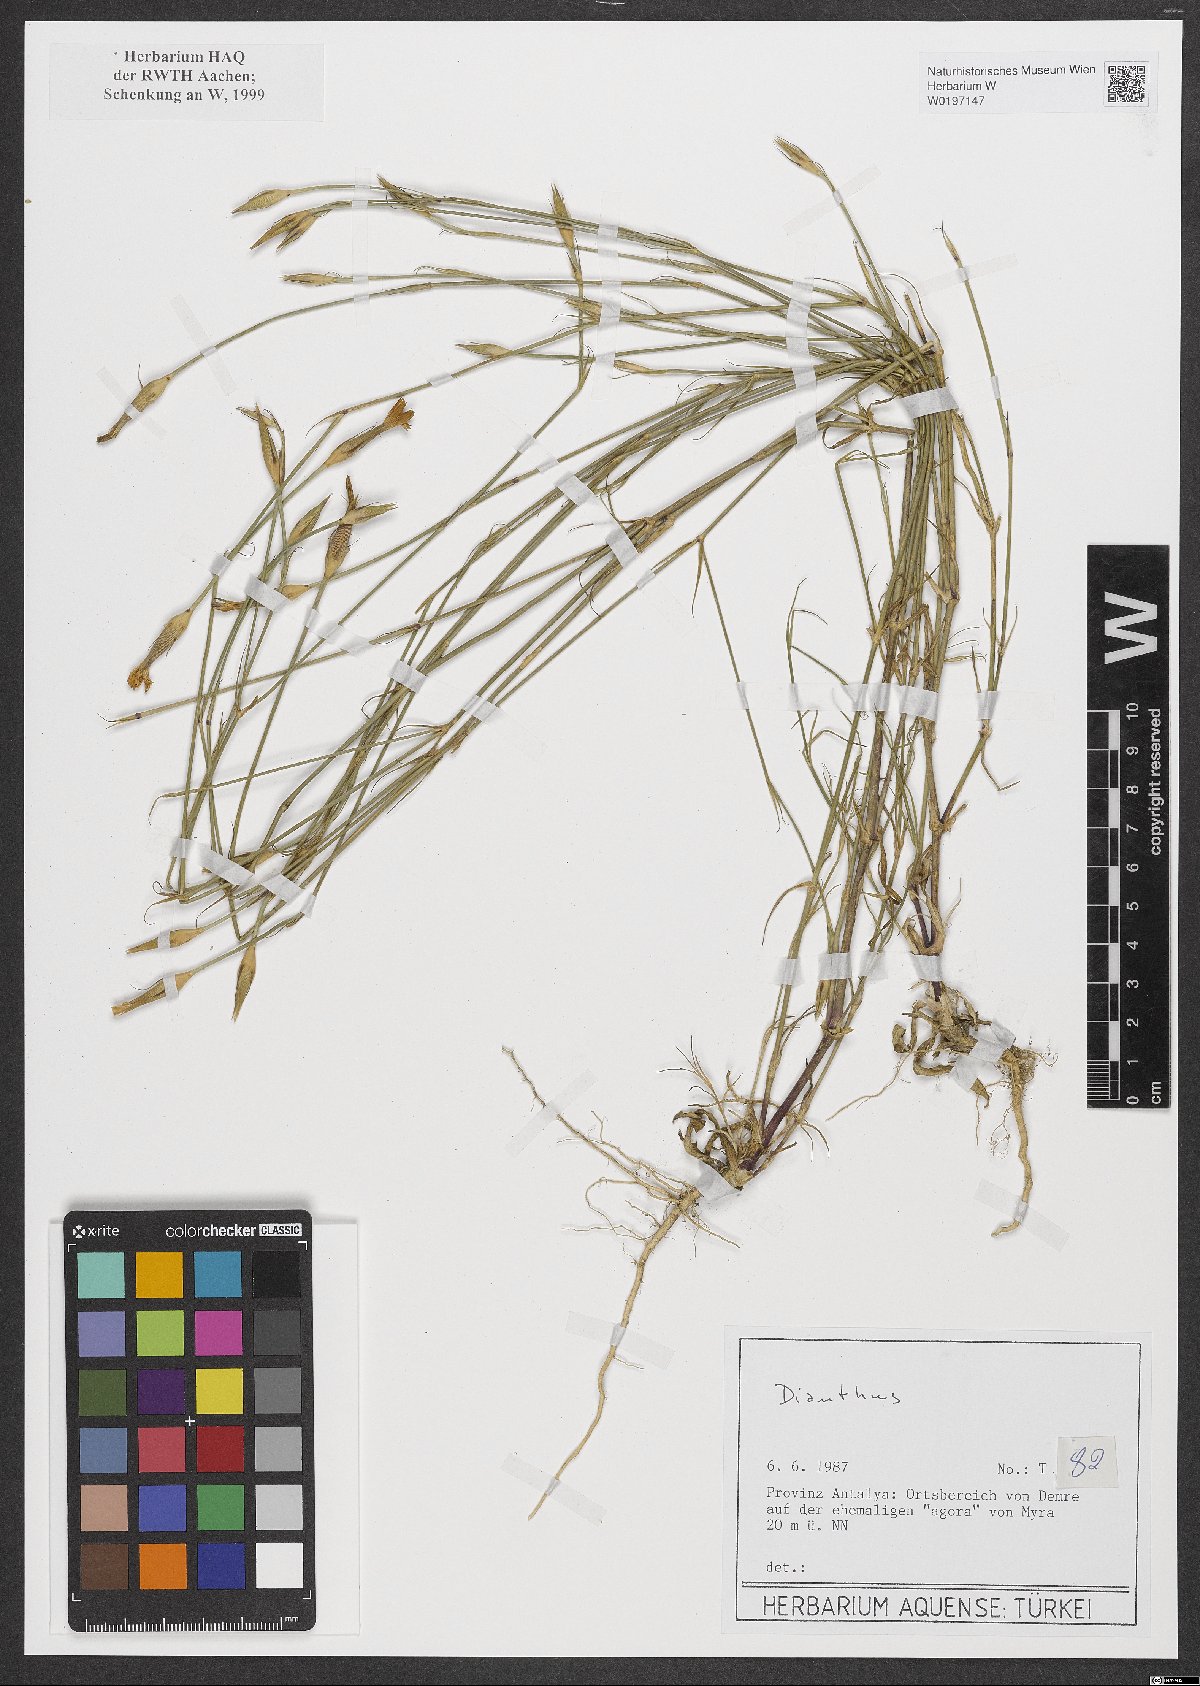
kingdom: Plantae
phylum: Tracheophyta
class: Magnoliopsida
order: Caryophyllales
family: Caryophyllaceae
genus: Dianthus
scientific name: Dianthus
